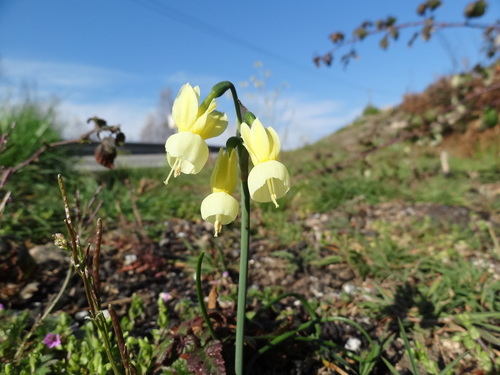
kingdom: Plantae
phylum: Tracheophyta
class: Liliopsida
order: Asparagales
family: Amaryllidaceae
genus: Narcissus
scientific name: Narcissus triandrus
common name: Angel's-tears
